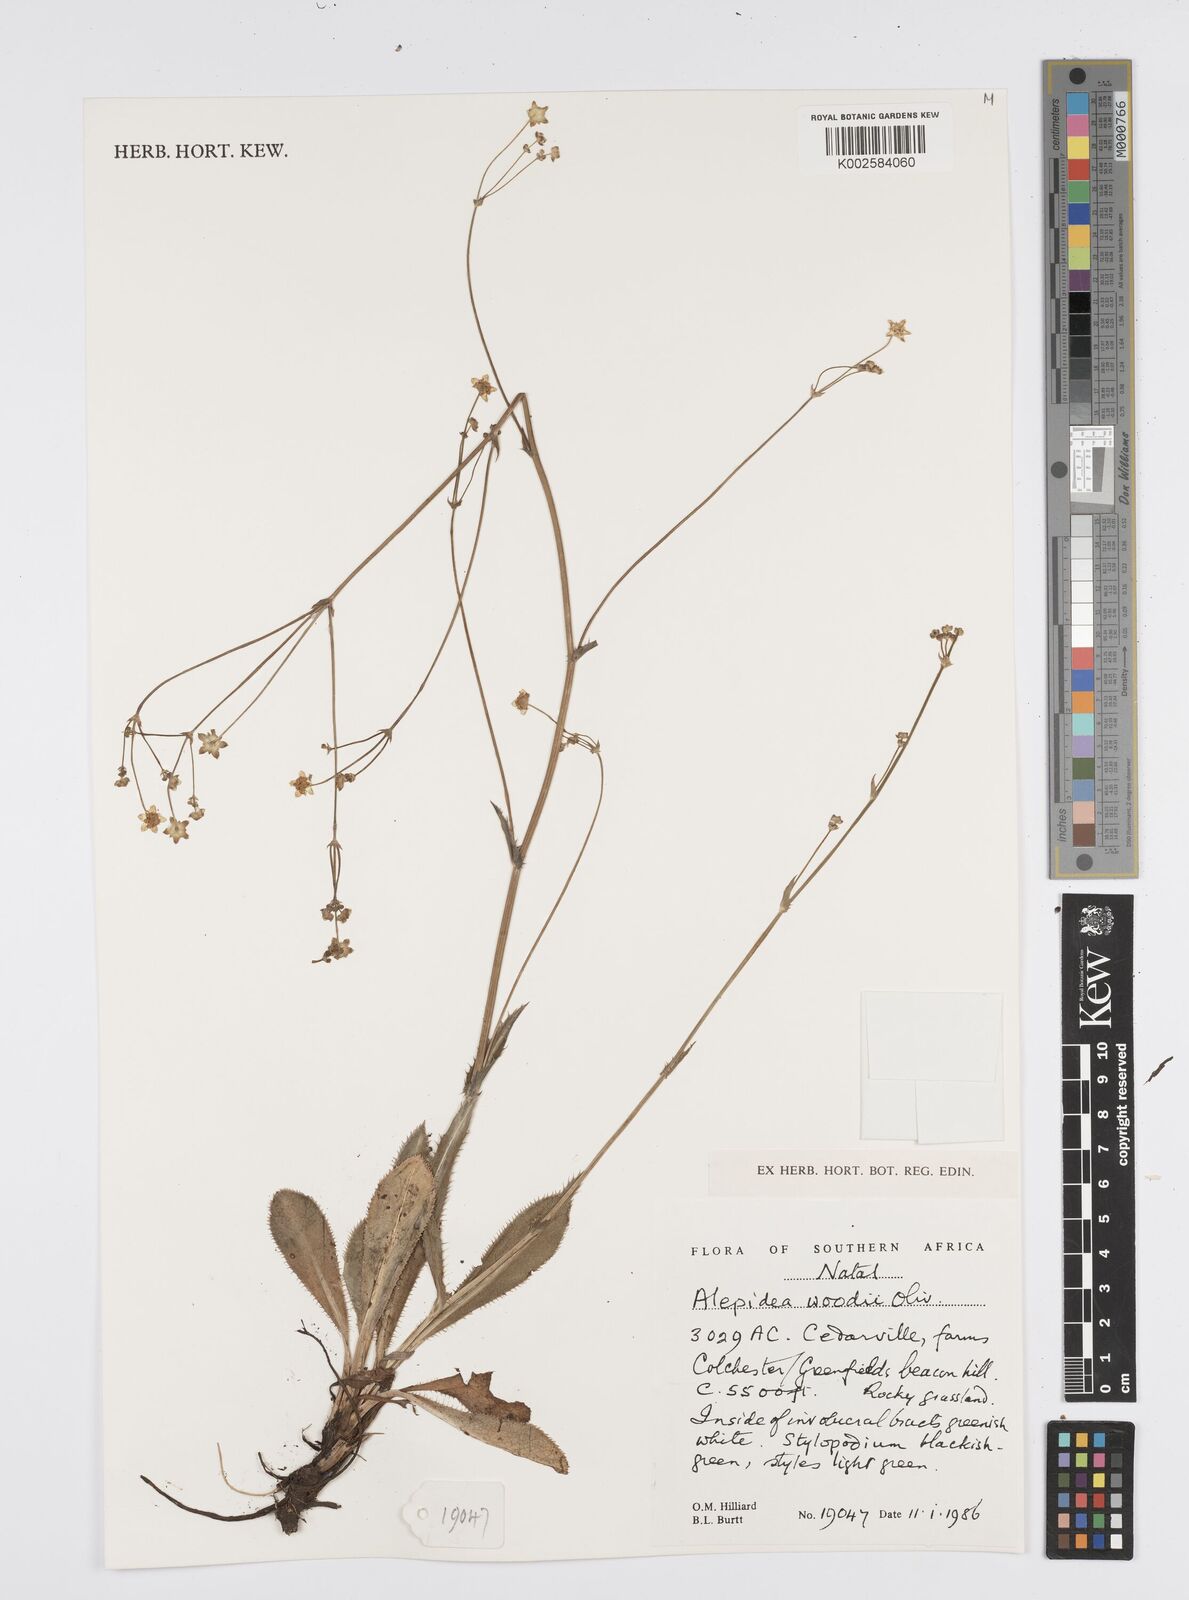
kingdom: Plantae
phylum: Tracheophyta
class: Magnoliopsida
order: Apiales
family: Apiaceae
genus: Alepidea
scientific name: Alepidea woodii
